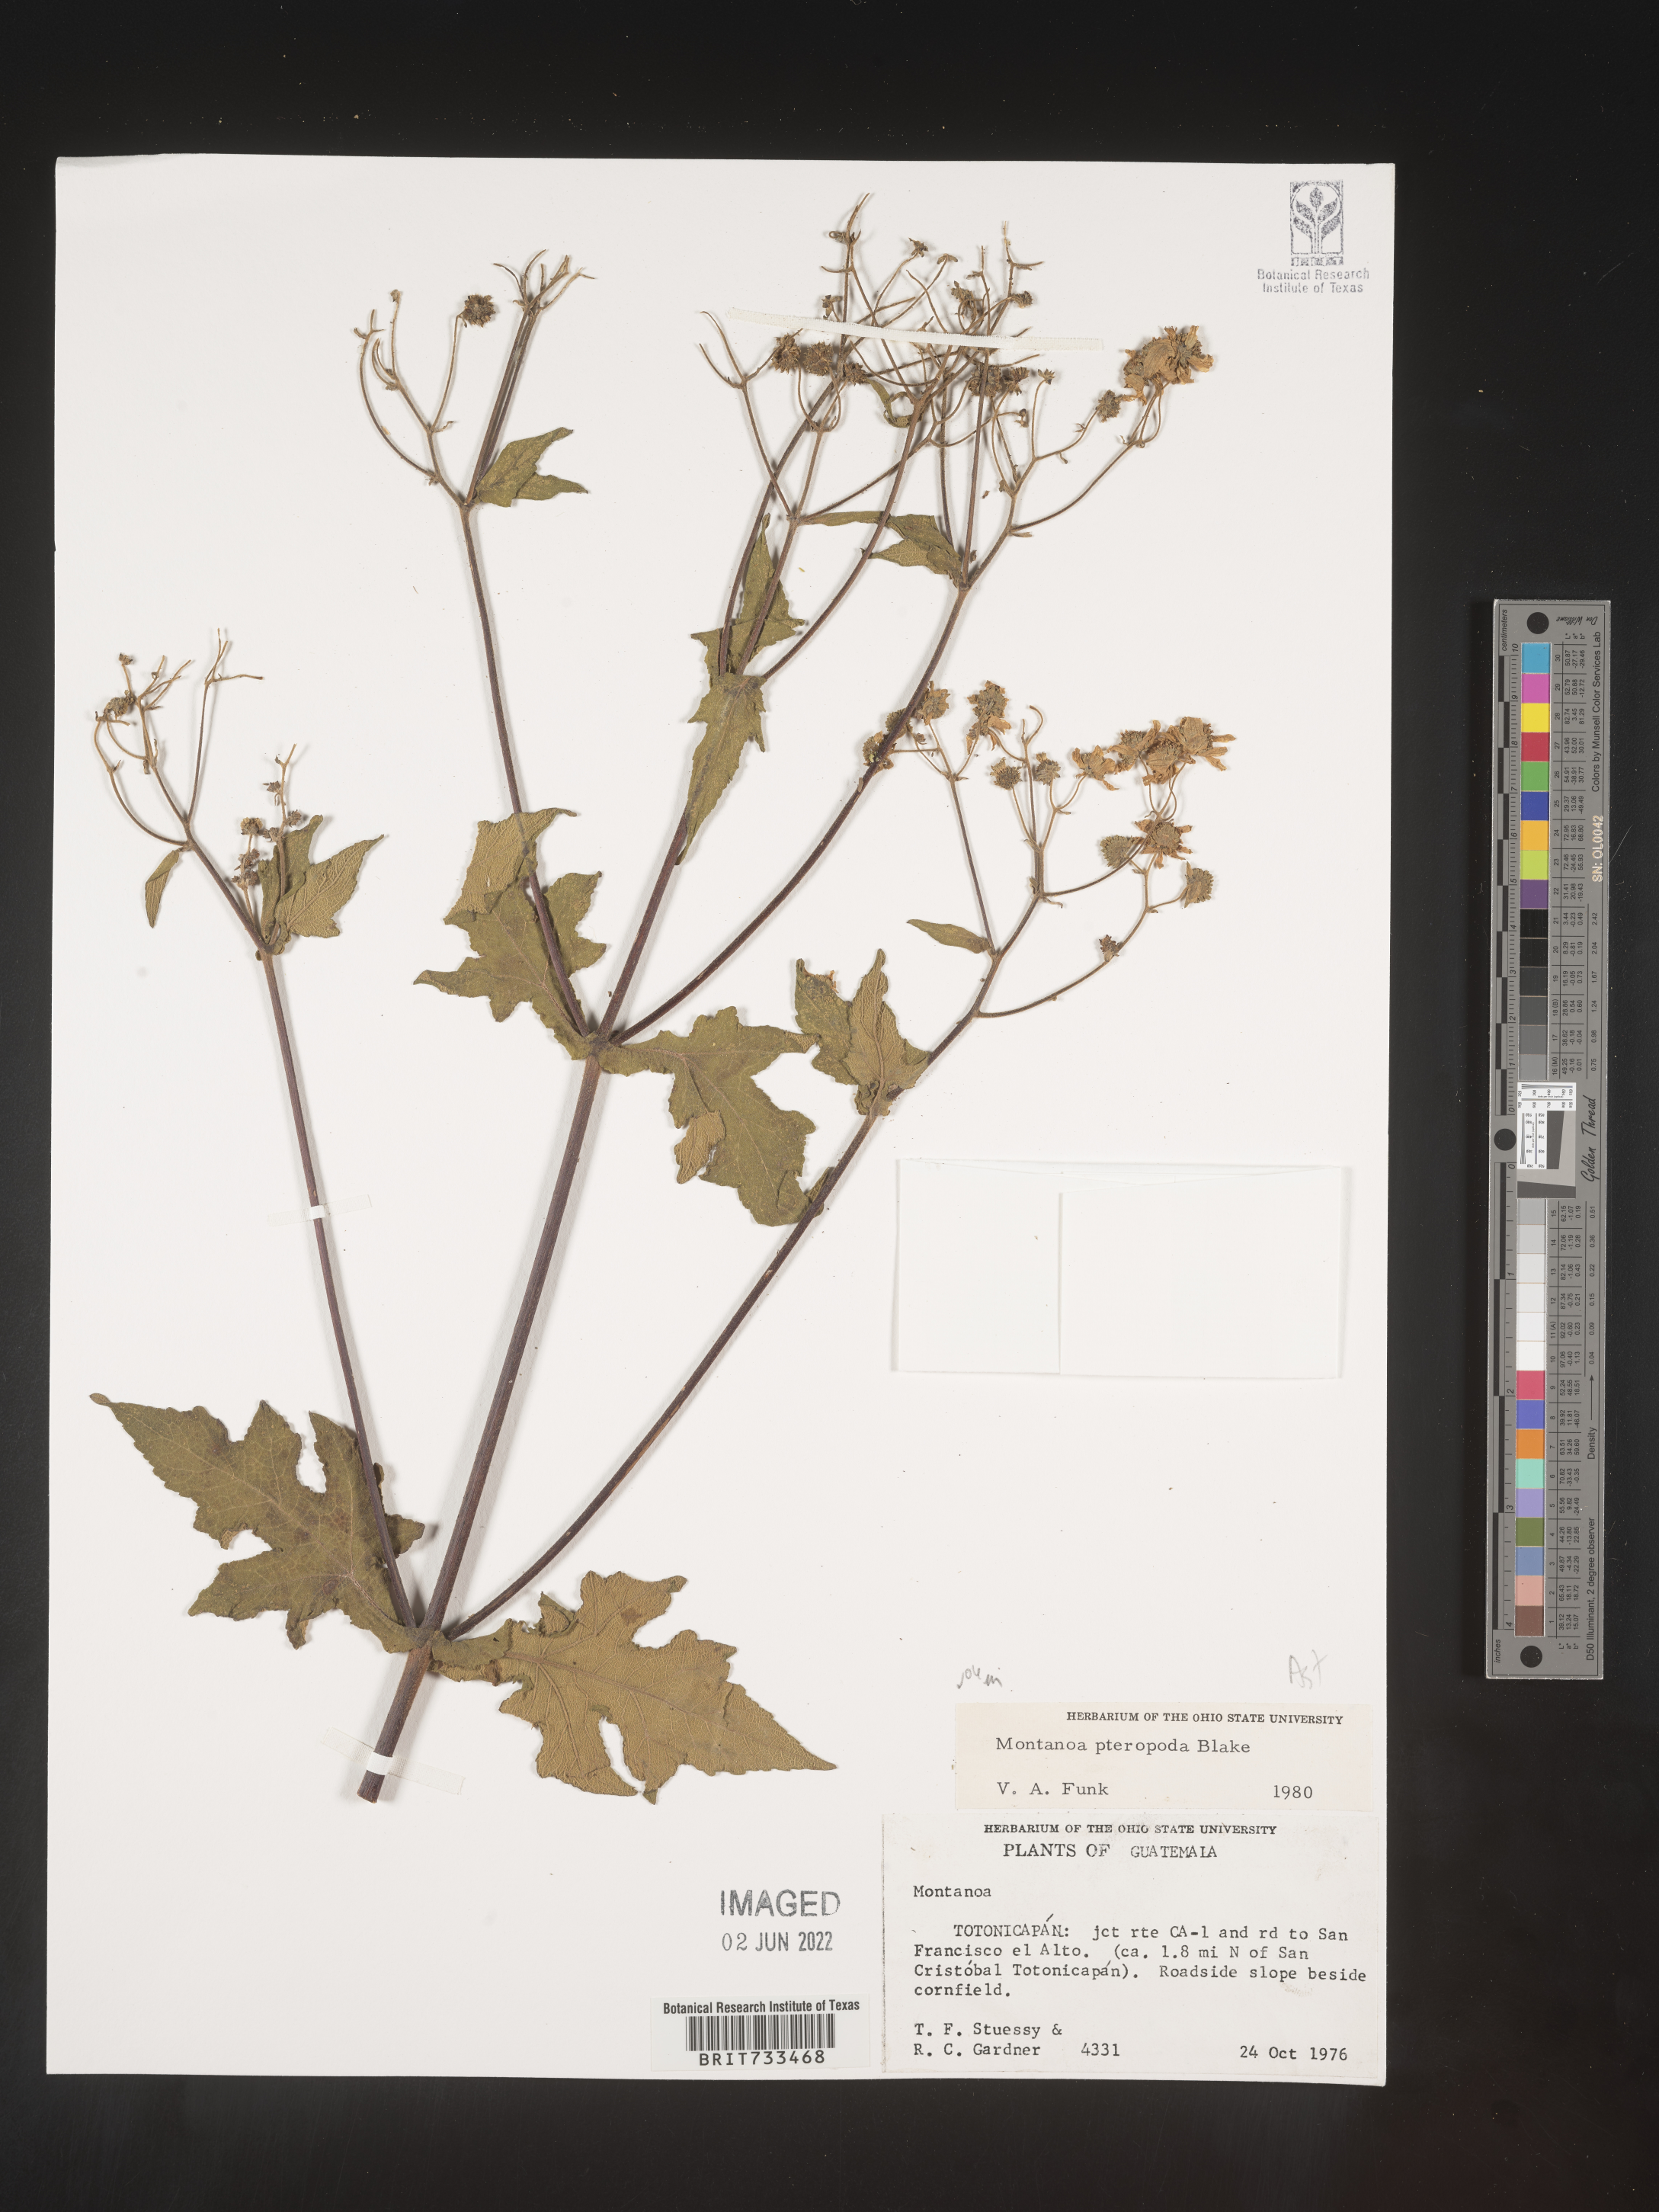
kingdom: Plantae
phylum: Tracheophyta
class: Magnoliopsida
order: Asterales
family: Asteraceae
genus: Montanoa
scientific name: Montanoa
